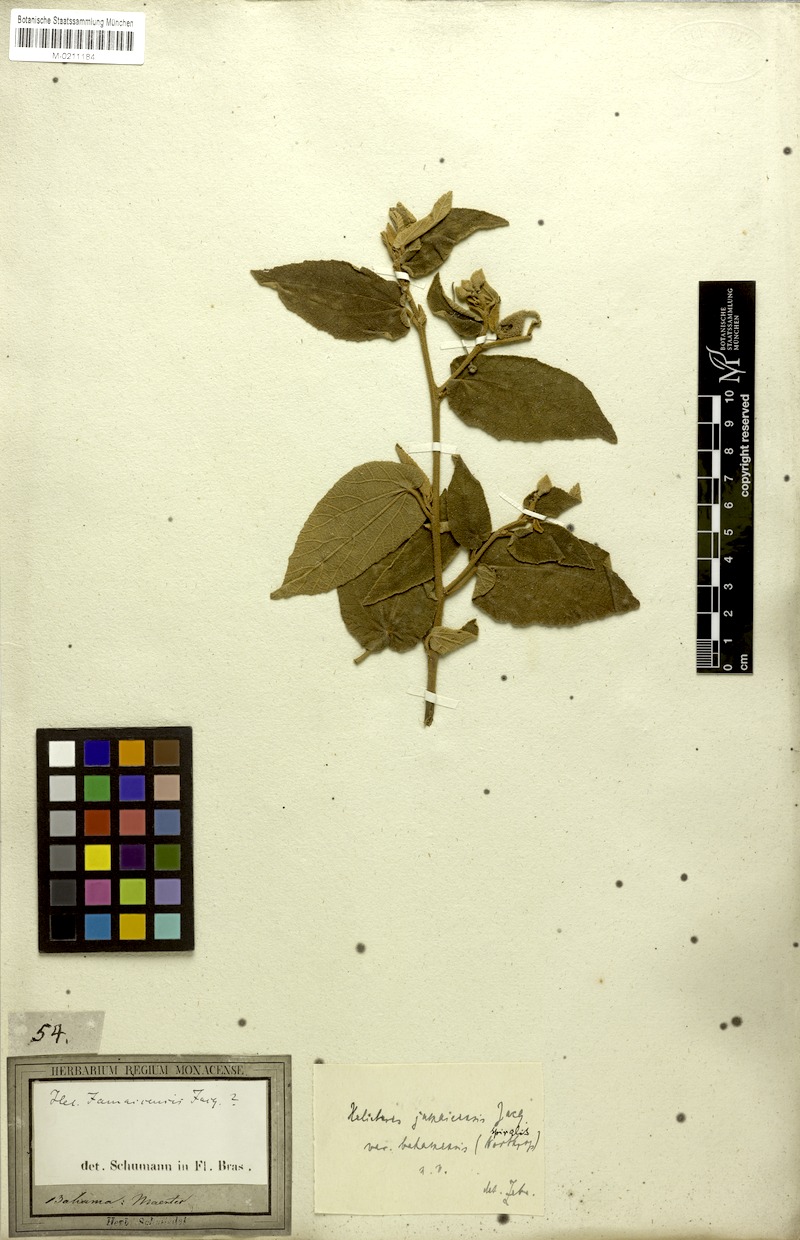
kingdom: Plantae
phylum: Tracheophyta
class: Magnoliopsida
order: Malvales
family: Malvaceae
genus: Helicteres
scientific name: Helicteres jamaicensis
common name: Cowbush
